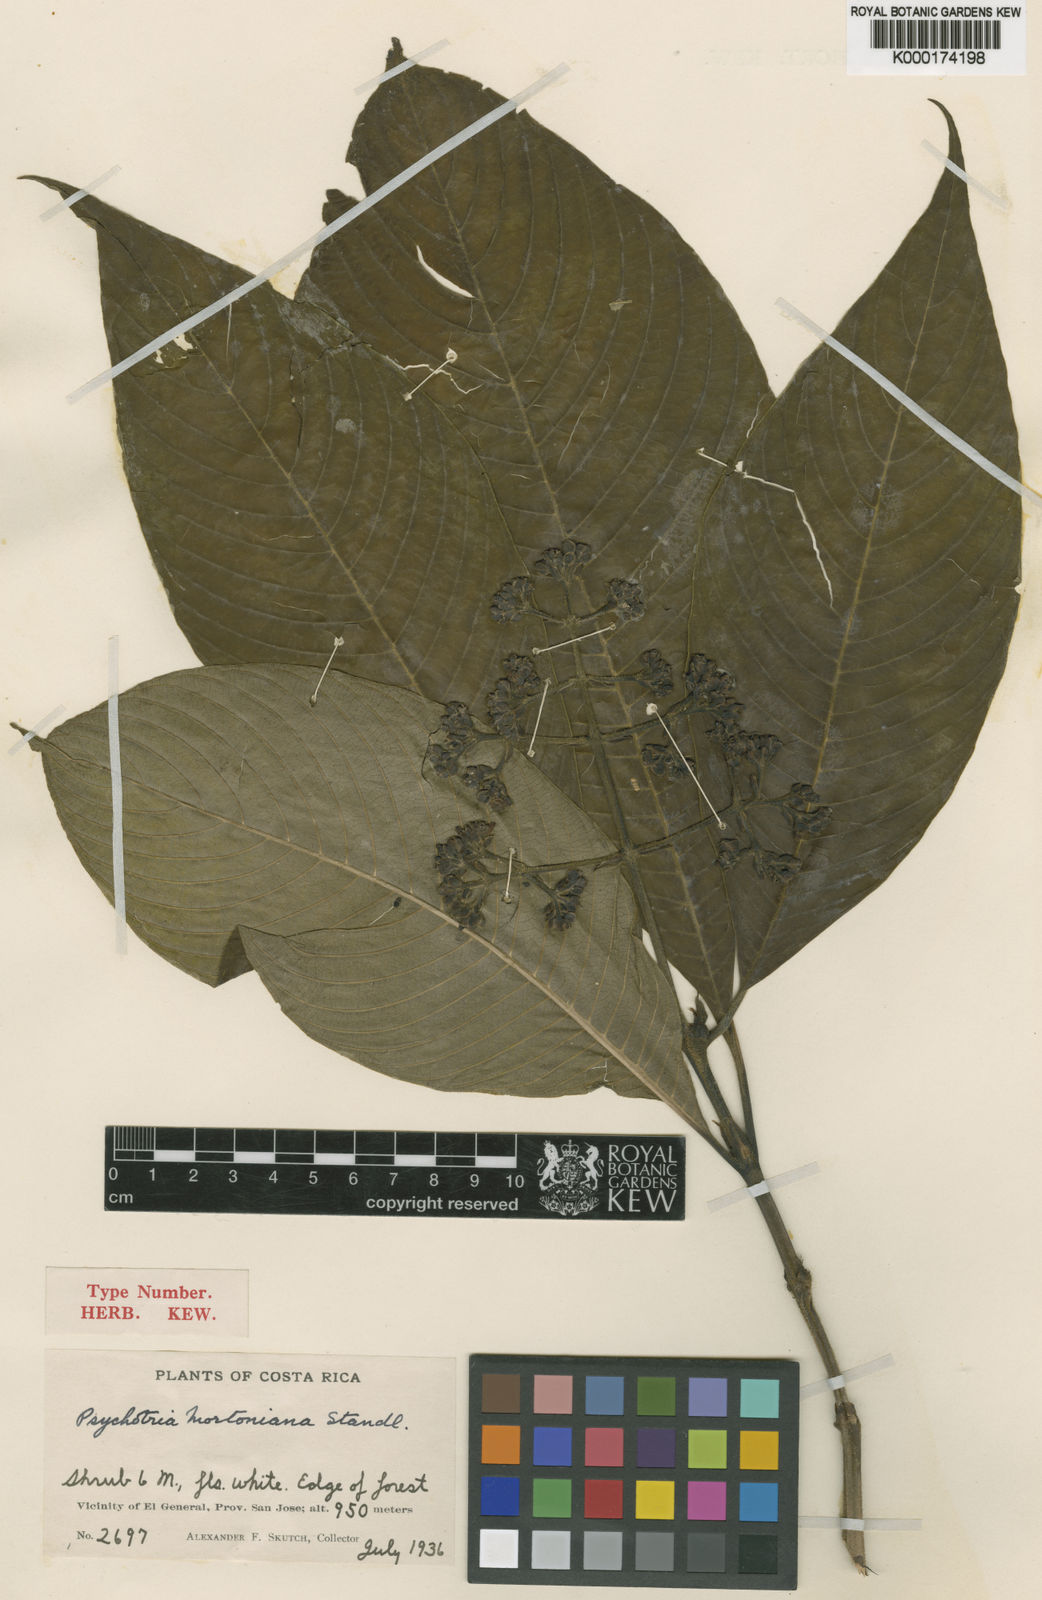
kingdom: Plantae
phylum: Tracheophyta
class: Magnoliopsida
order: Gentianales
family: Rubiaceae
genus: Palicourea
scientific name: Palicourea mortoniana
